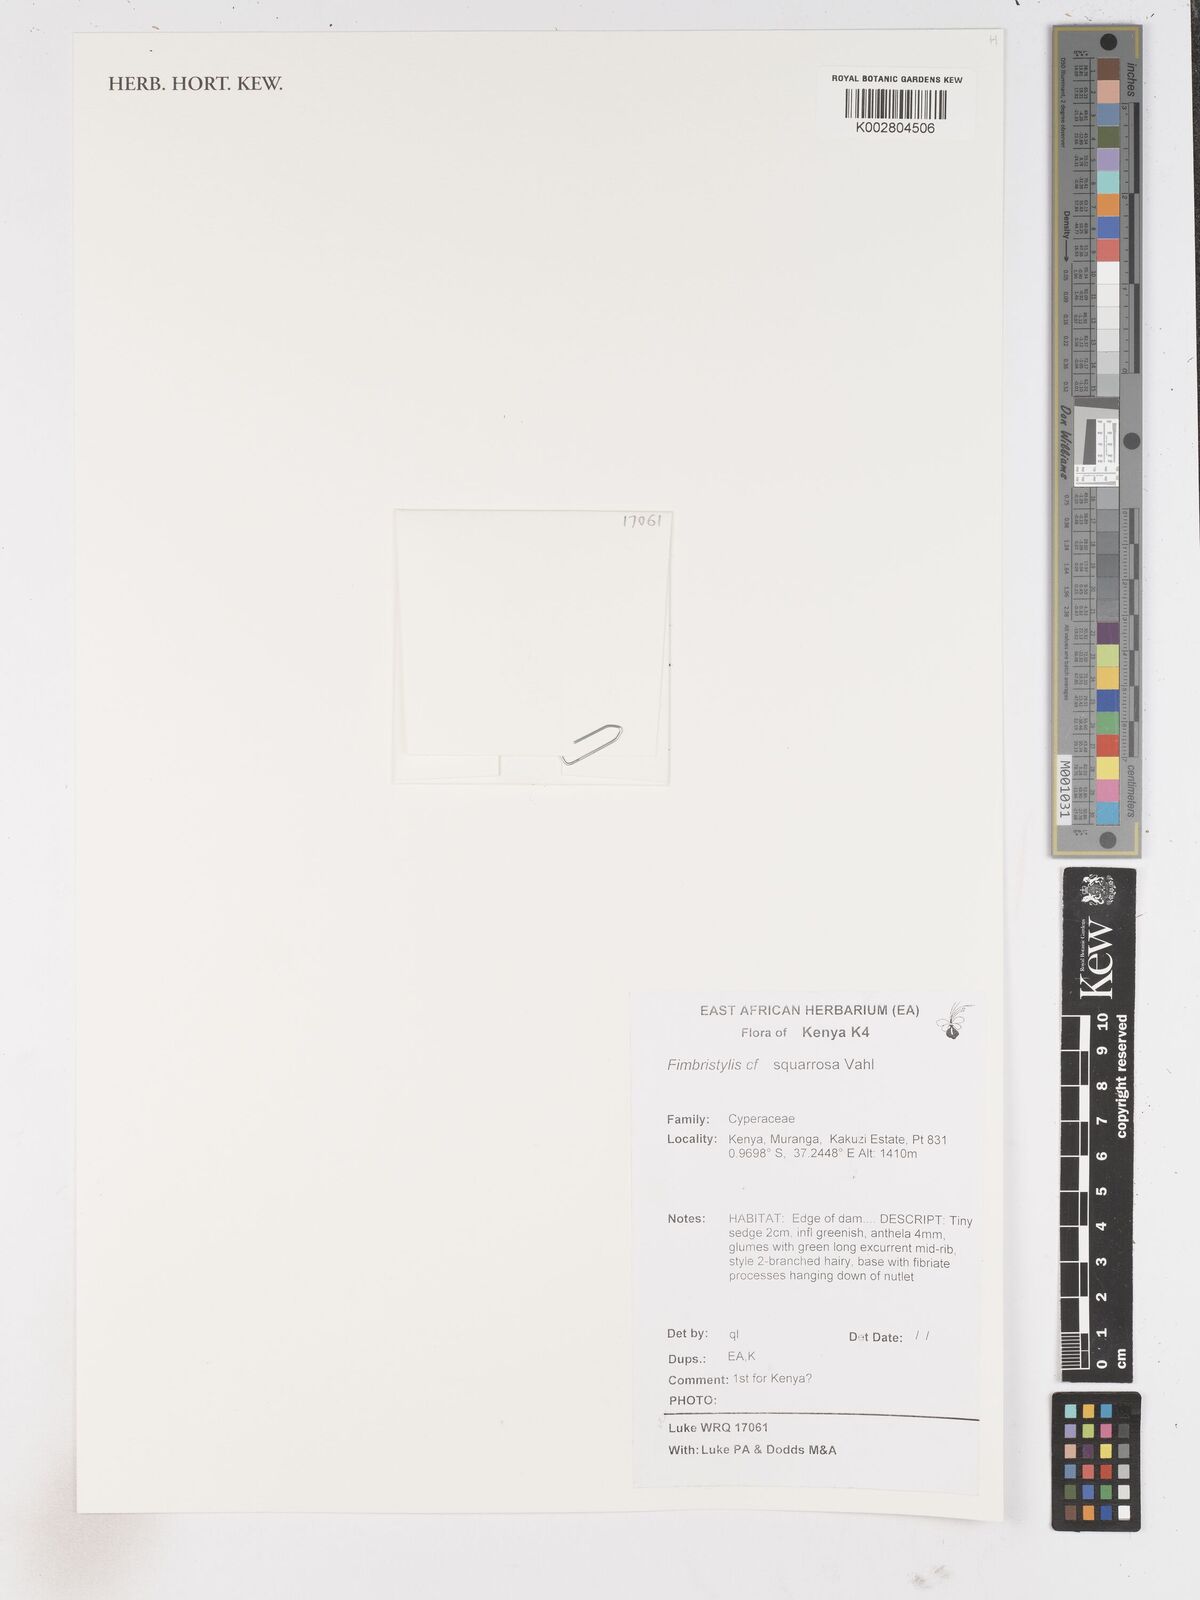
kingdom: Plantae
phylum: Tracheophyta
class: Liliopsida
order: Poales
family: Cyperaceae
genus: Fimbristylis
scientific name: Fimbristylis squarrosa
